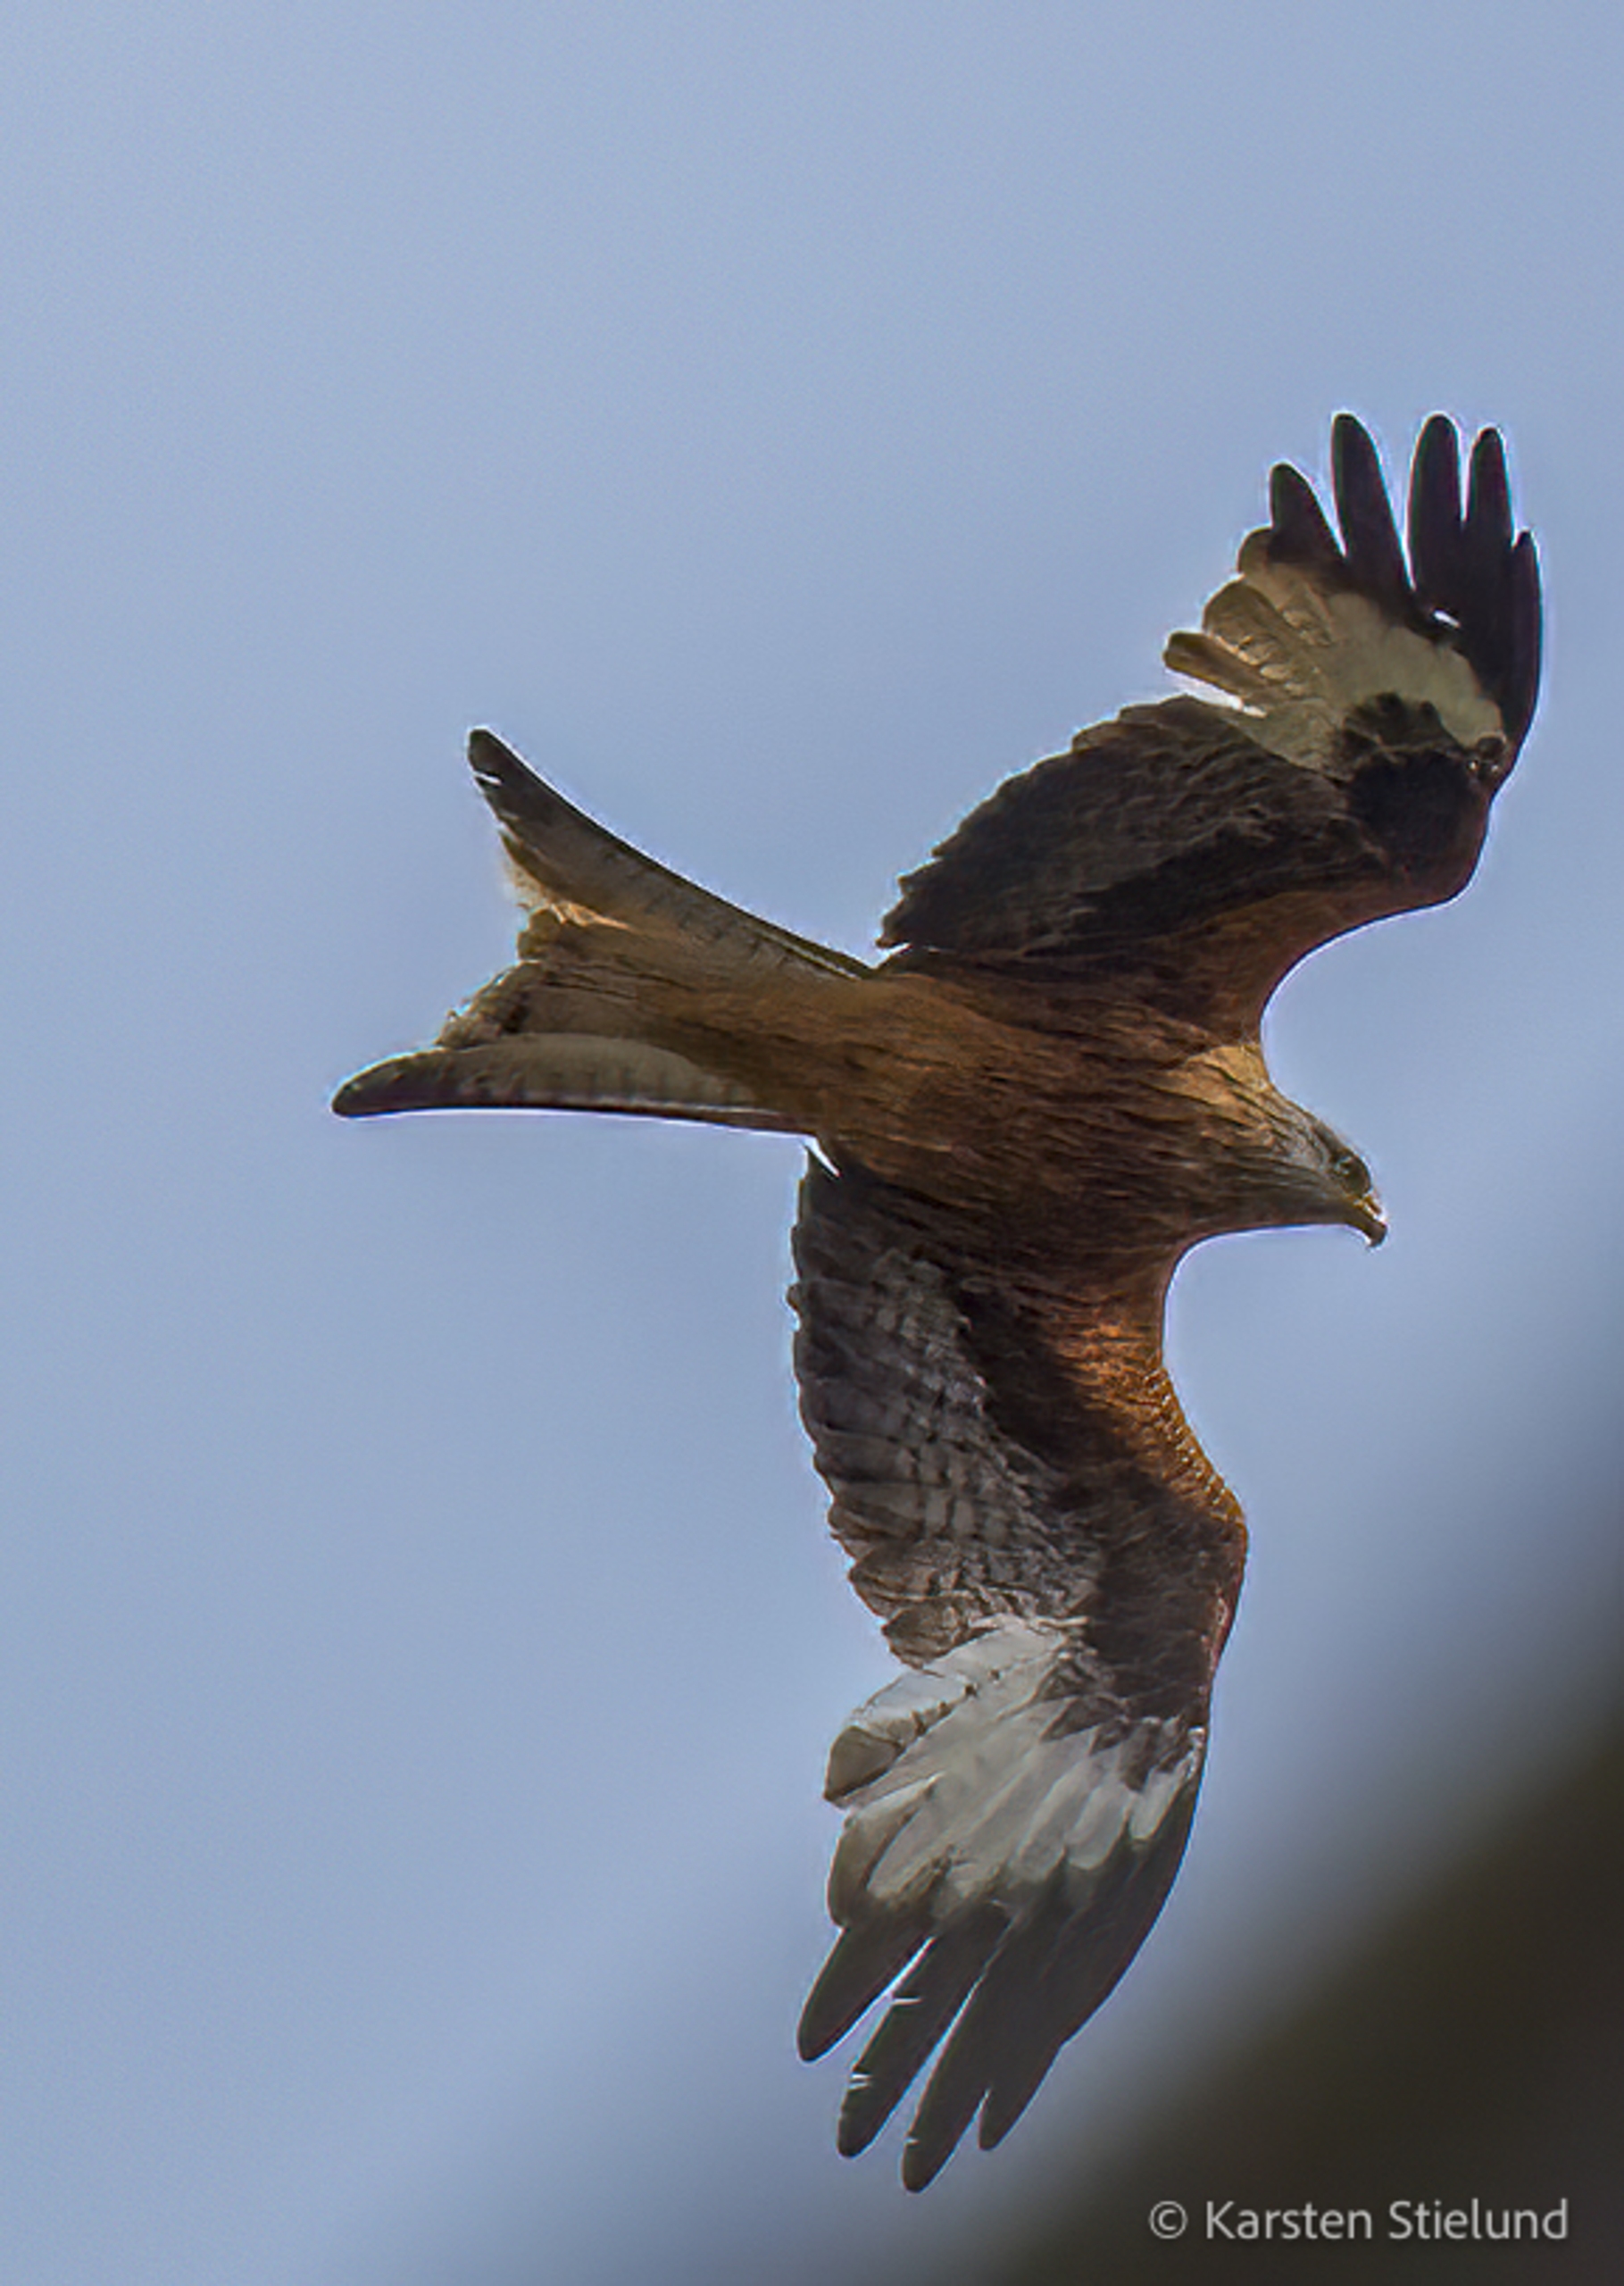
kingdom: Animalia
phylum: Chordata
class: Aves
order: Accipitriformes
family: Accipitridae
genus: Milvus
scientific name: Milvus milvus
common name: Rød glente
